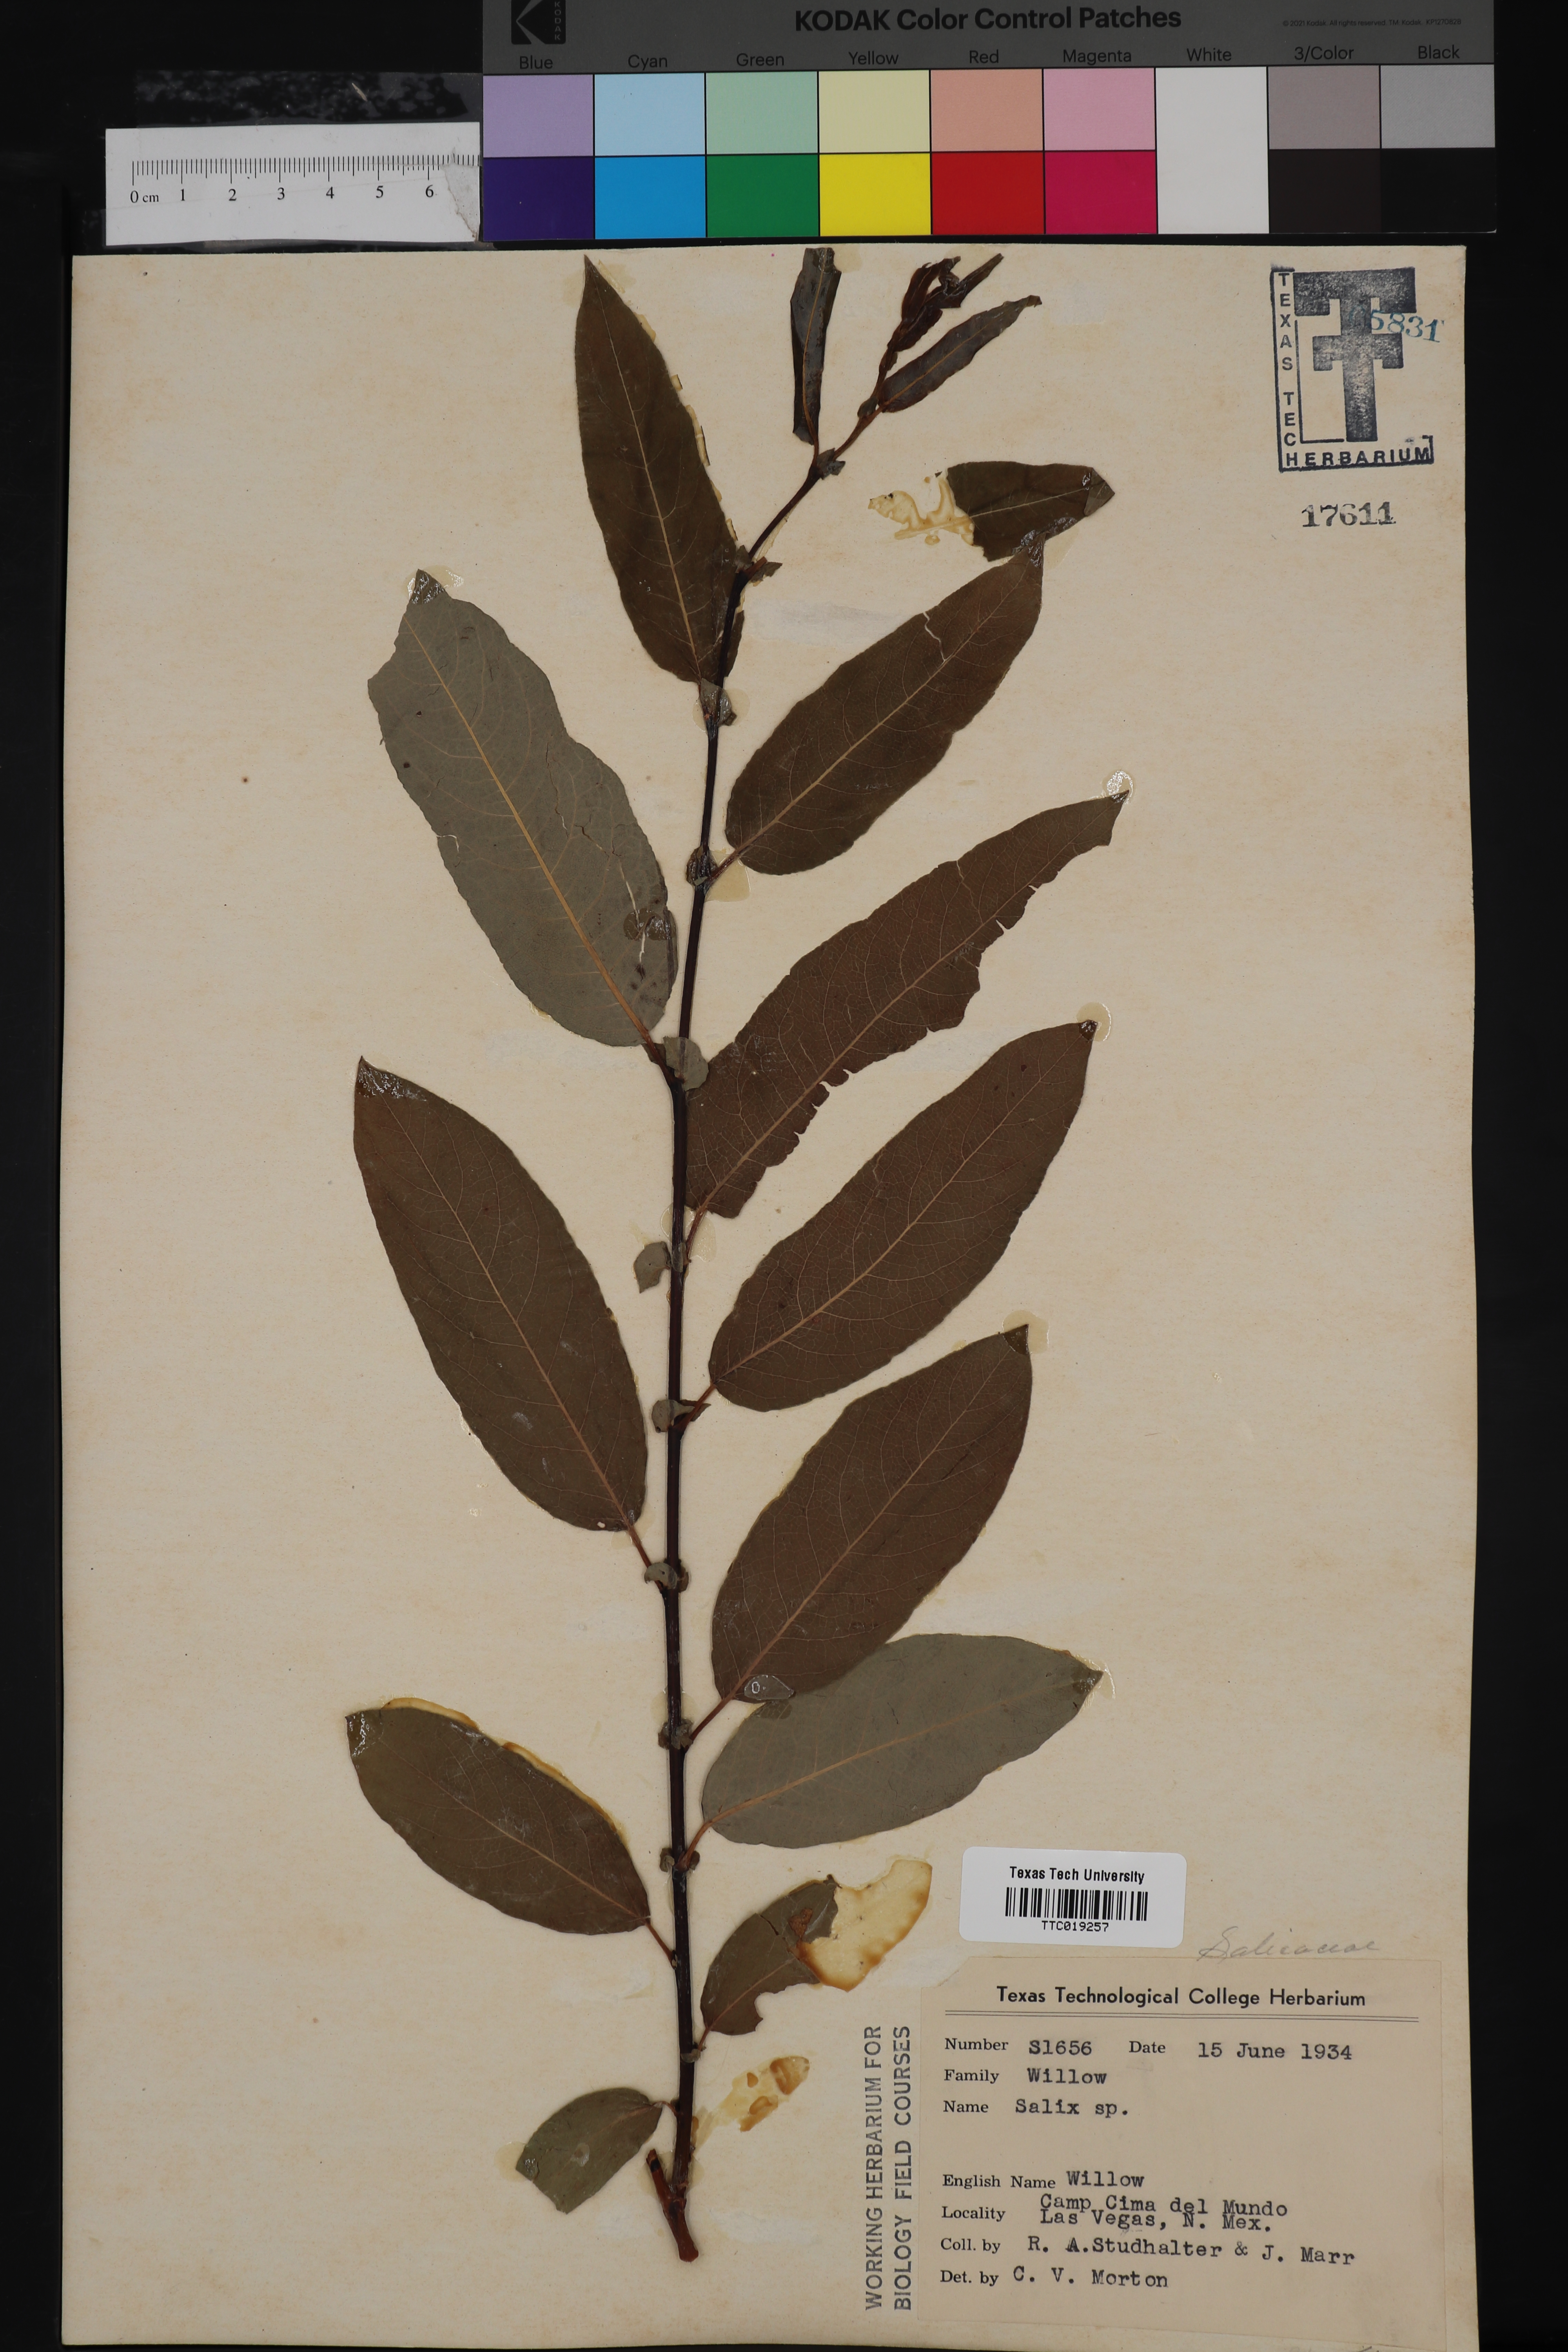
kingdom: Plantae
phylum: Tracheophyta
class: Magnoliopsida
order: Malpighiales
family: Salicaceae
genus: Salix
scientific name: Salix
